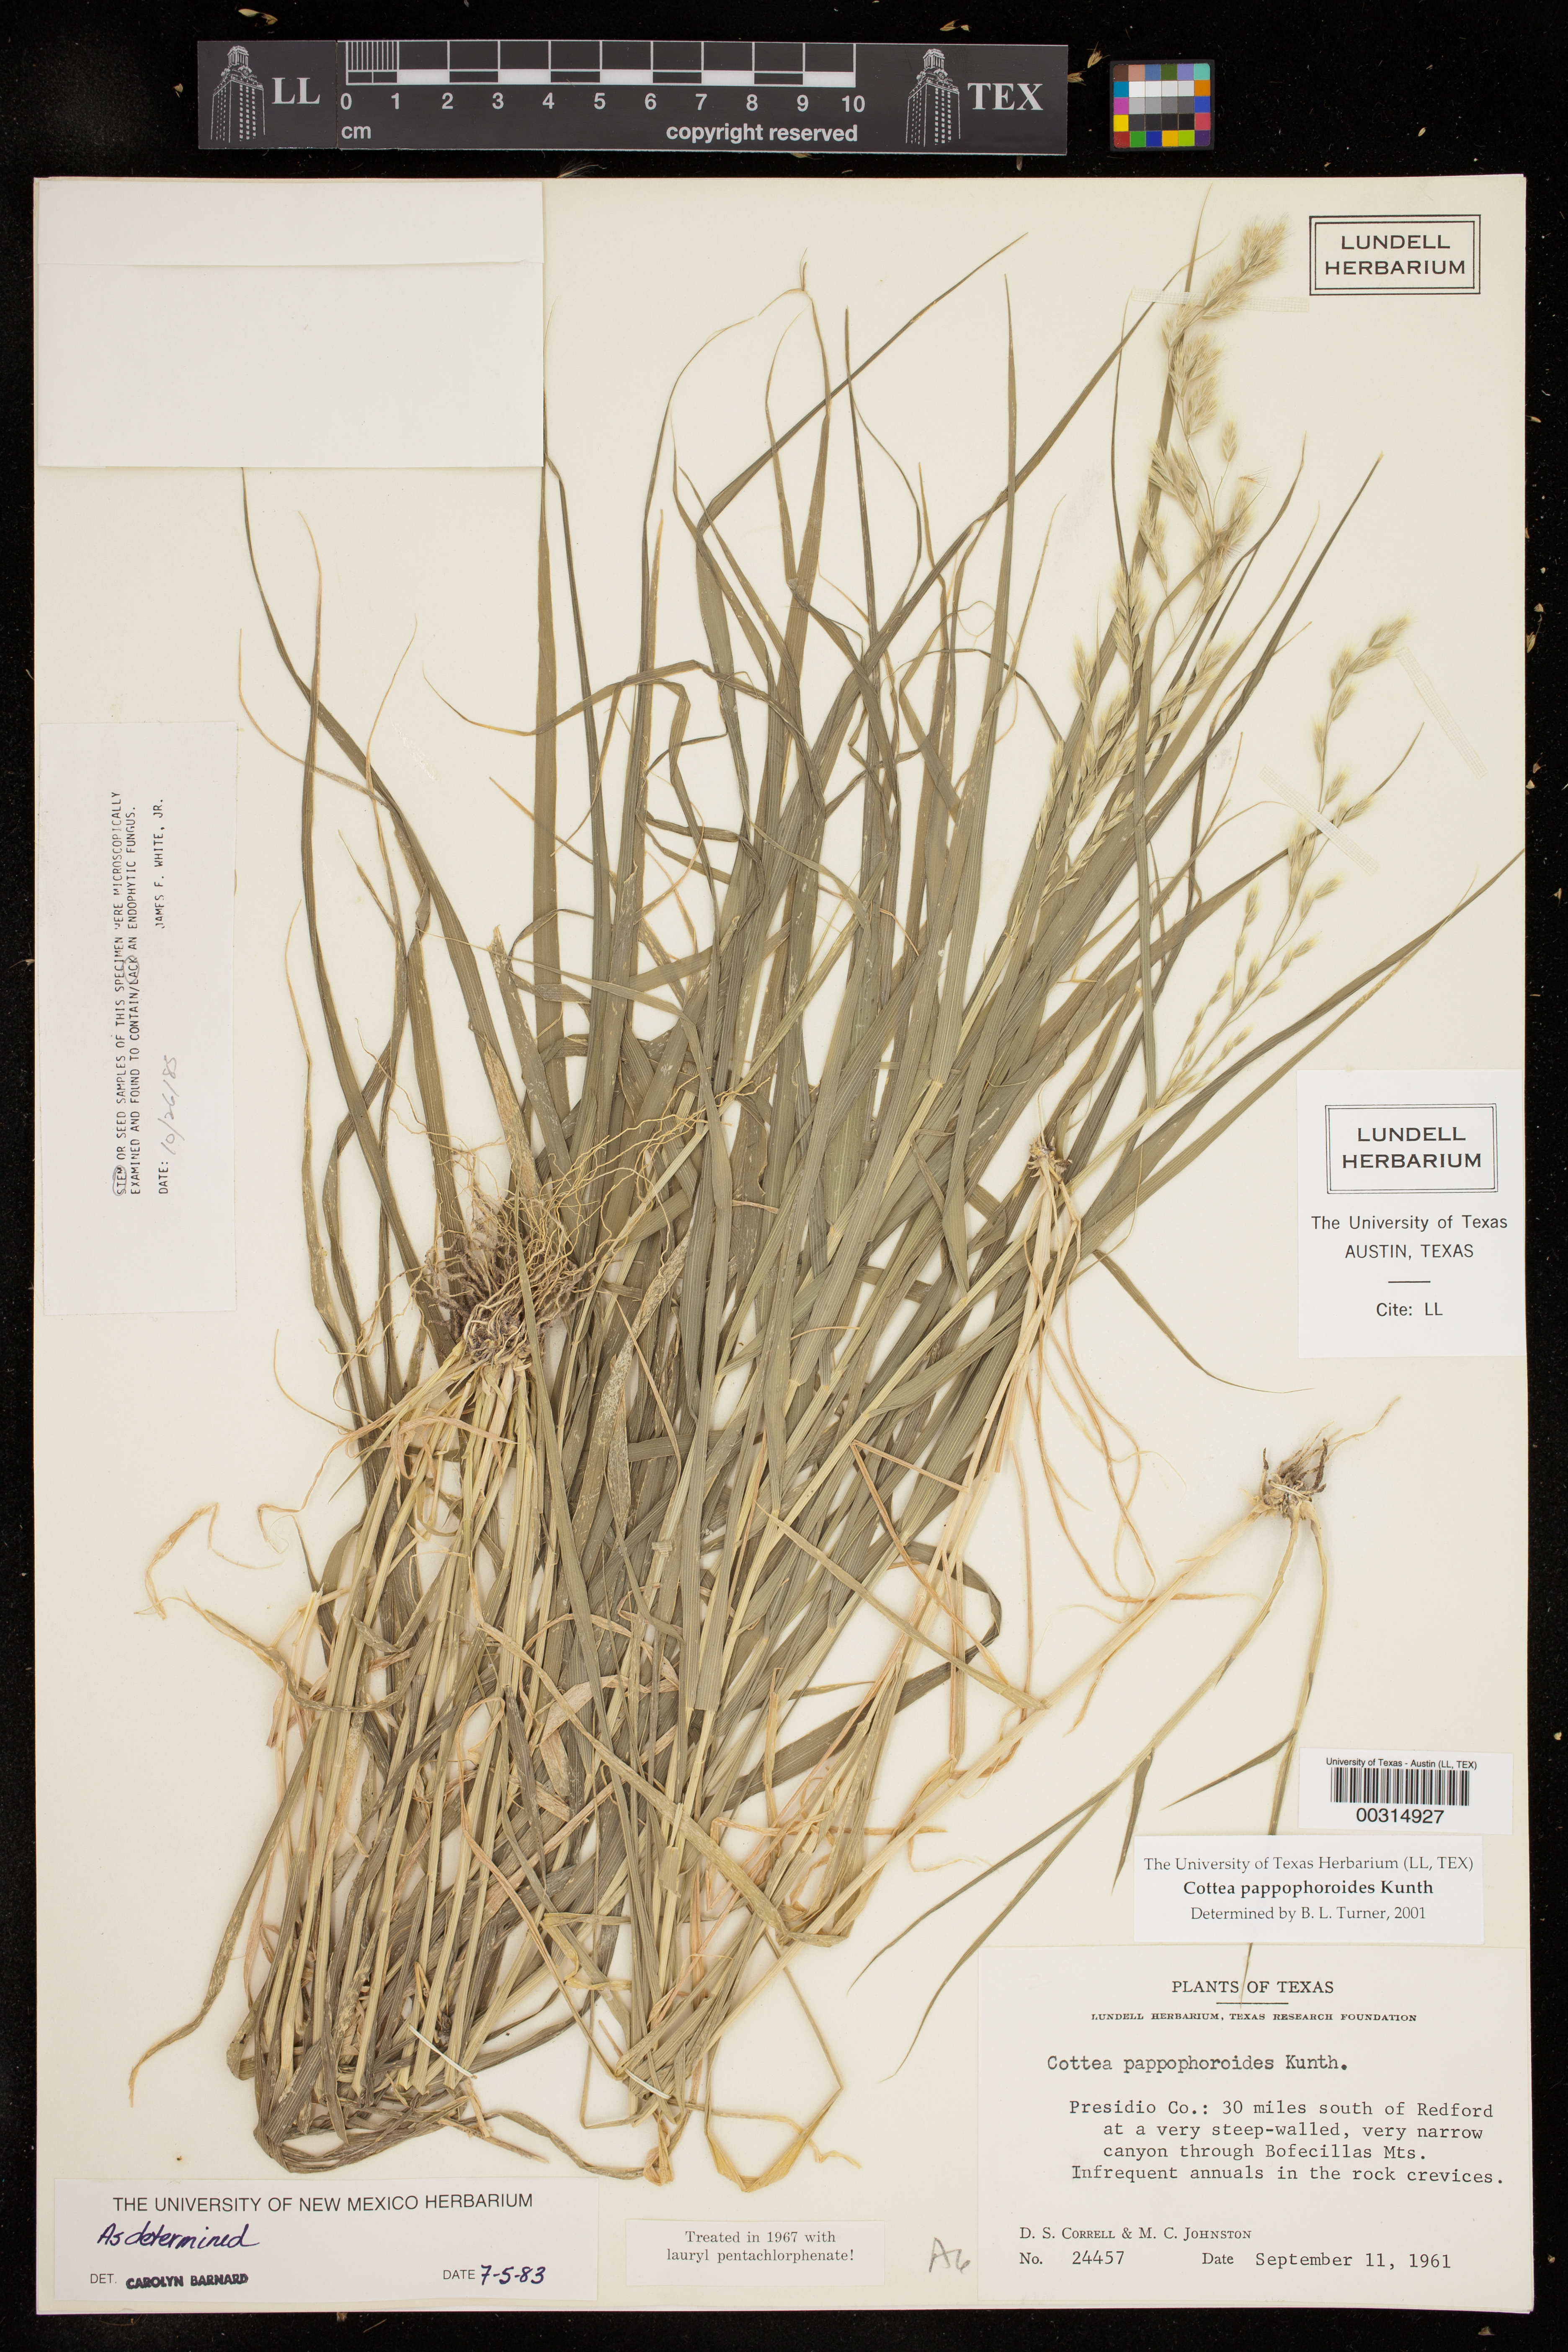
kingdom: Plantae
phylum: Tracheophyta
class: Liliopsida
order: Poales
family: Poaceae
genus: Cottea
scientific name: Cottea pappophoroides
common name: Cotta grass
